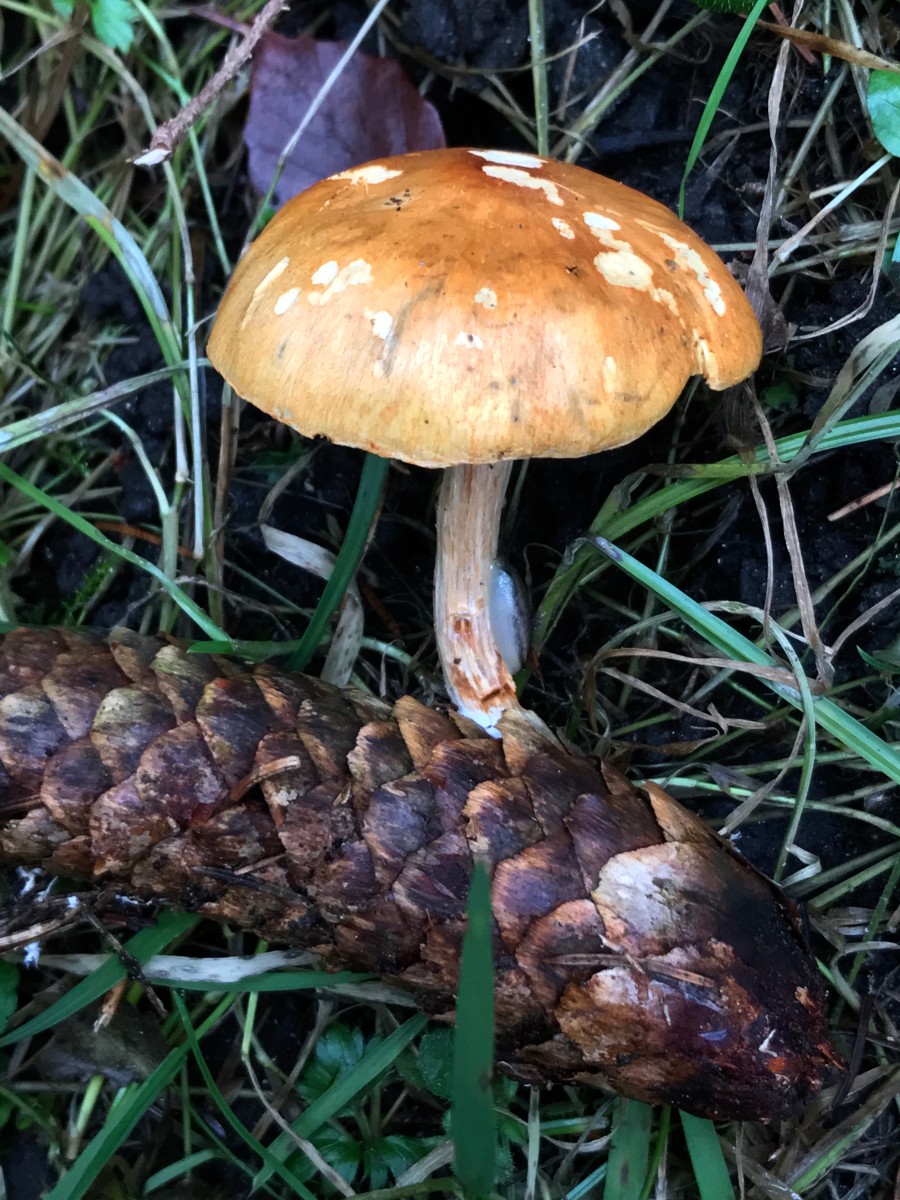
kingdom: Fungi
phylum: Basidiomycota
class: Agaricomycetes
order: Agaricales
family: Hymenogastraceae
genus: Gymnopilus
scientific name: Gymnopilus penetrans
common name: plettet flammehat
